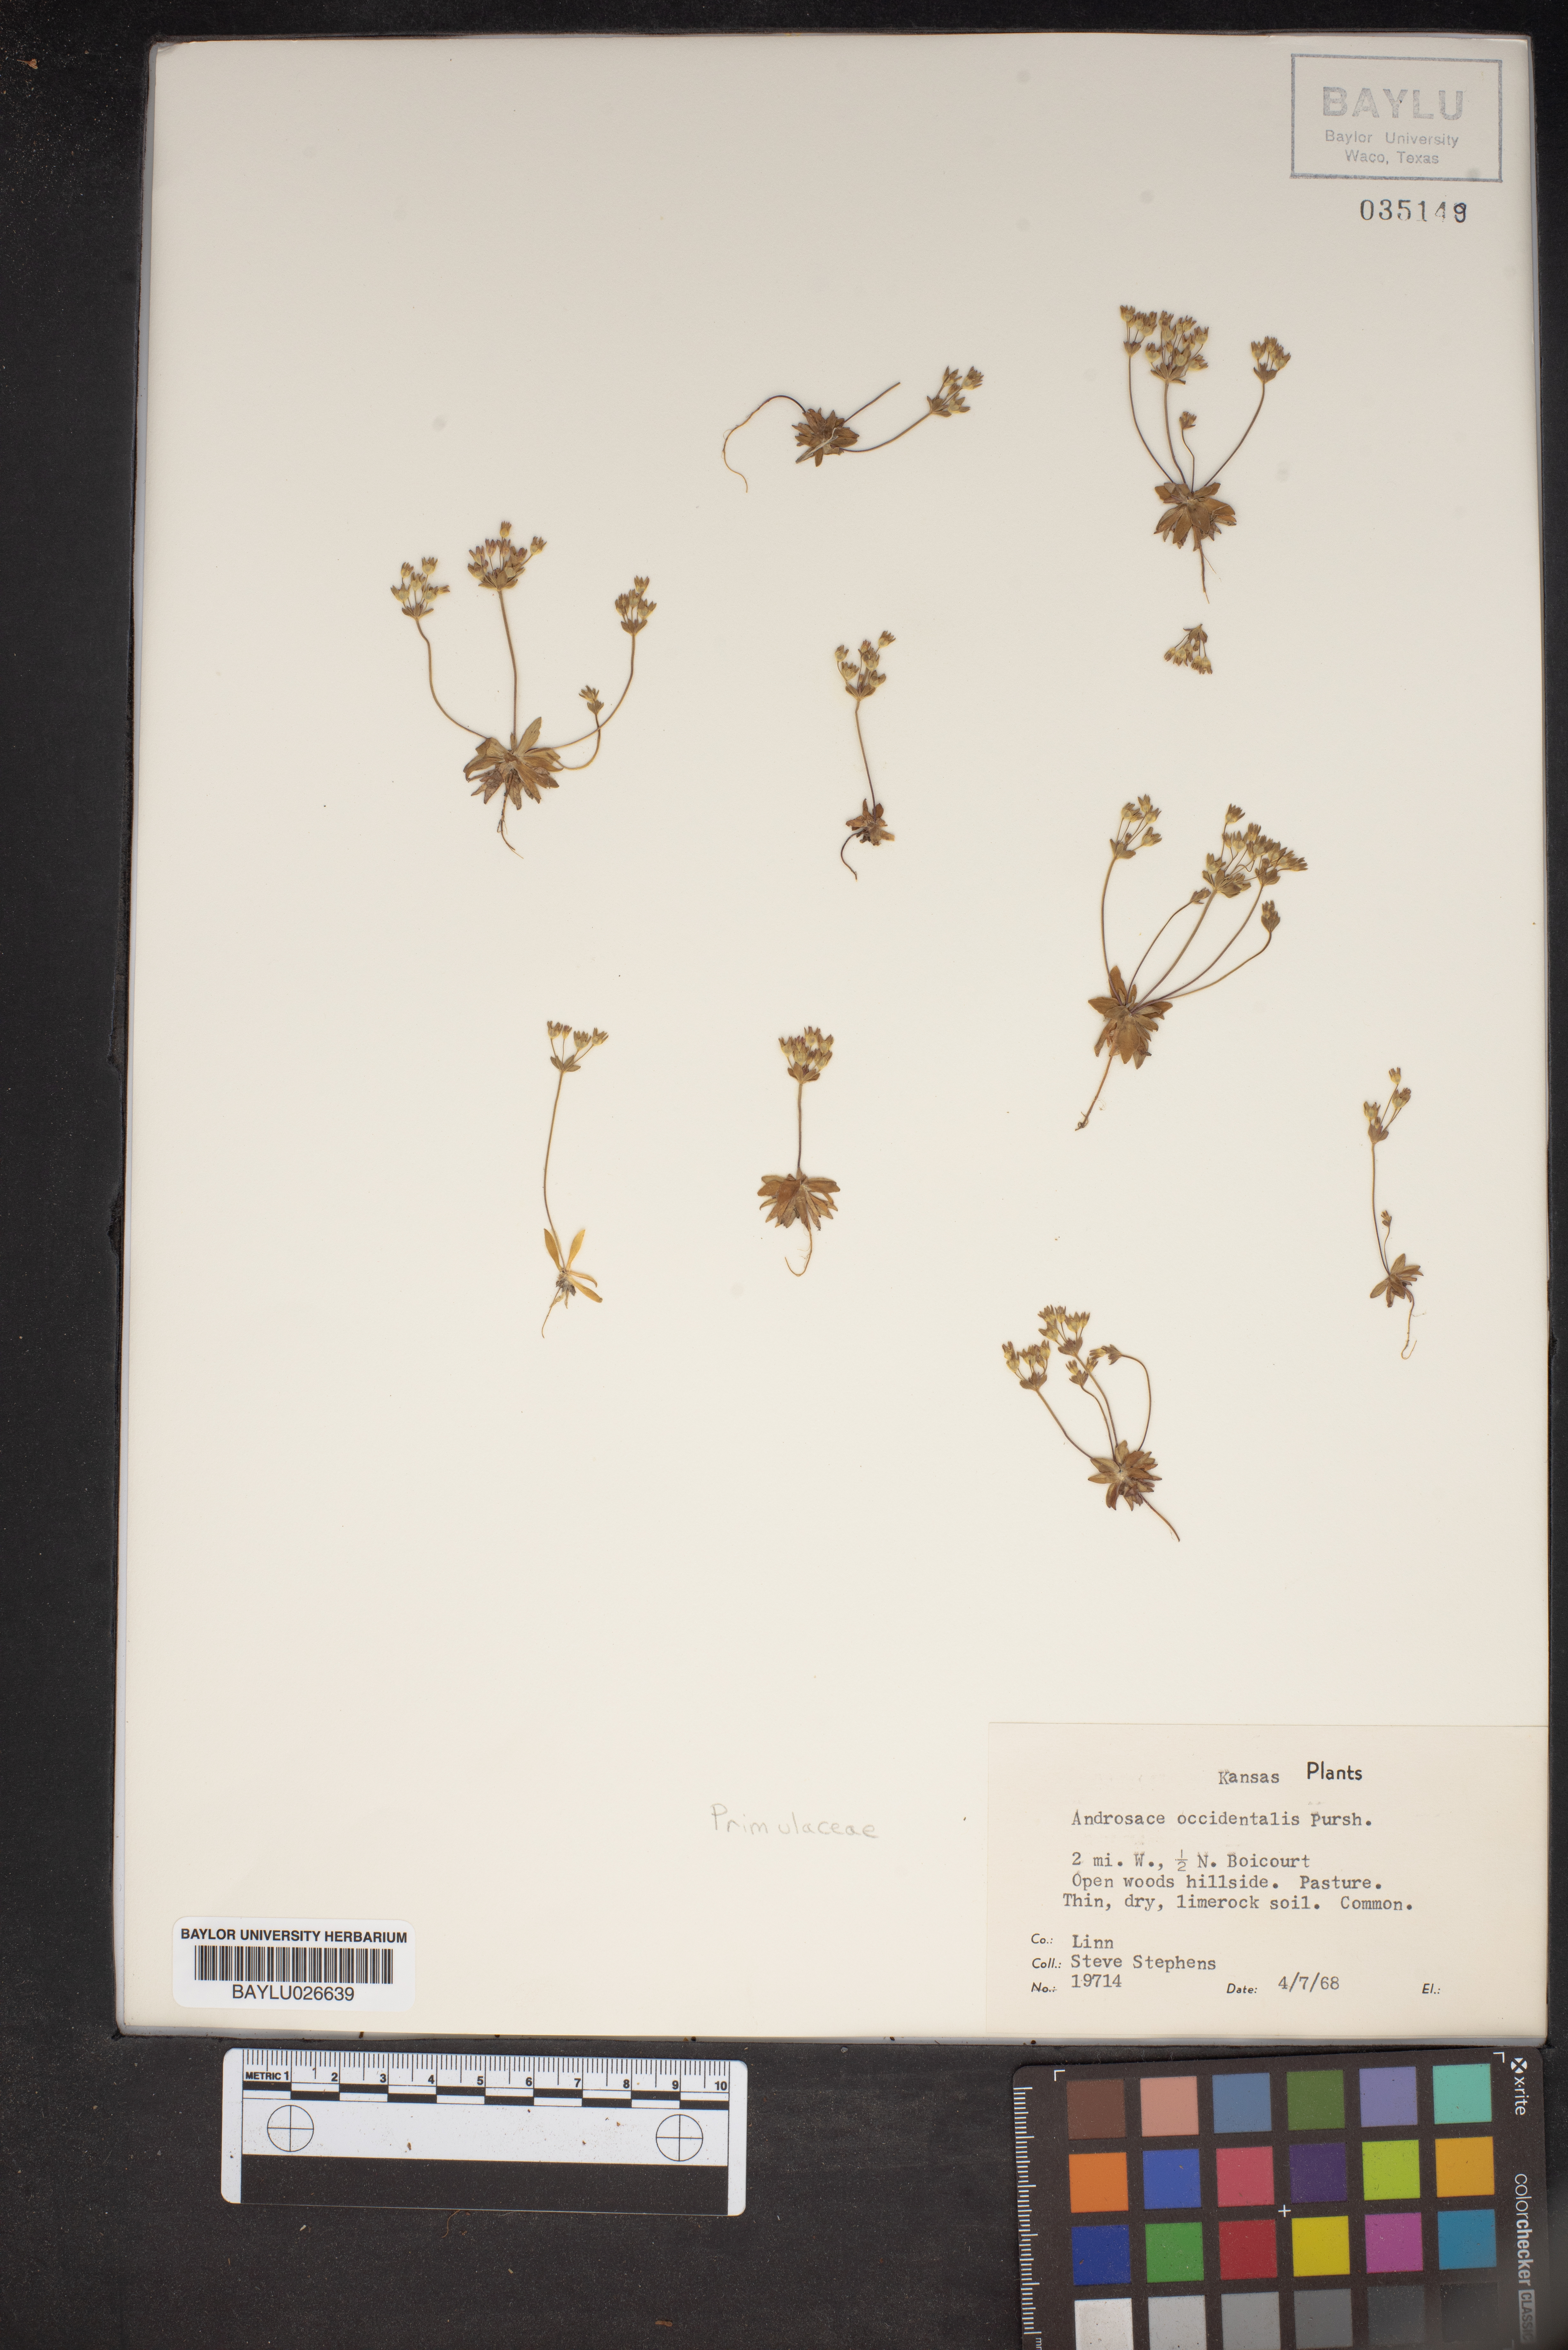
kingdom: Plantae
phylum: Tracheophyta
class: Magnoliopsida
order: Ericales
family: Primulaceae
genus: Androsace
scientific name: Androsace occidentalis
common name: West rock-jasmine
